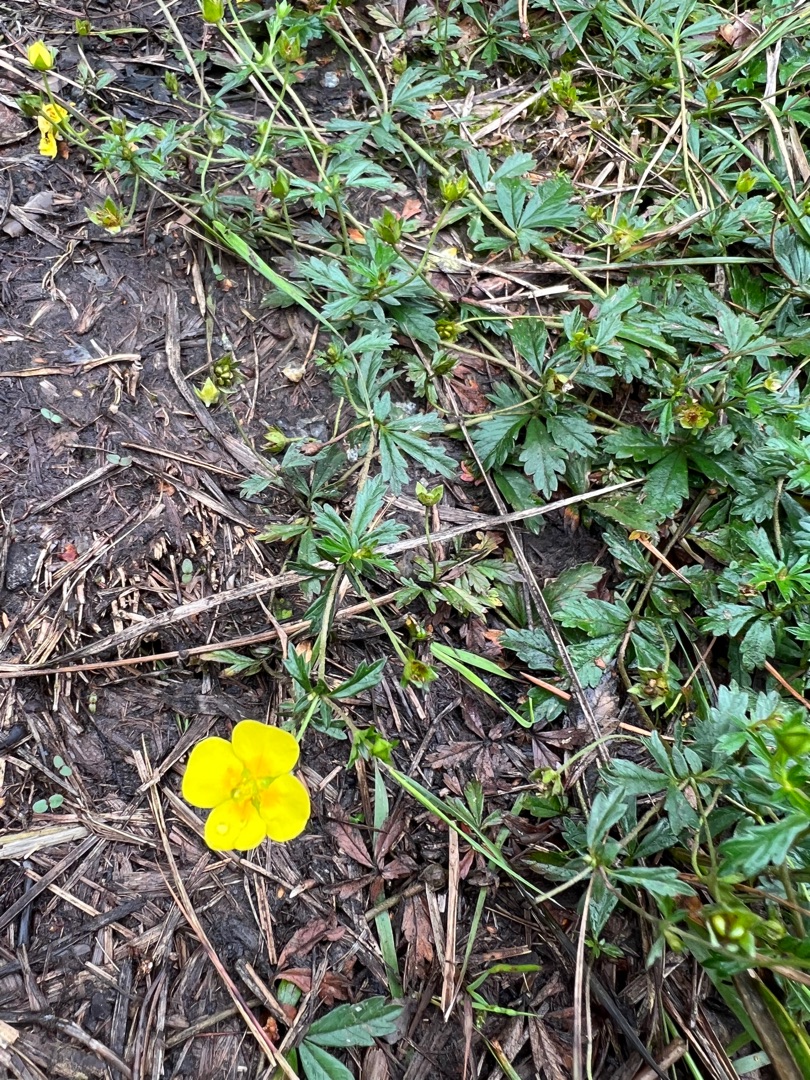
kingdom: Plantae
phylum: Tracheophyta
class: Magnoliopsida
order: Rosales
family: Rosaceae
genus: Potentilla
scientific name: Potentilla erecta
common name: Tormentil
